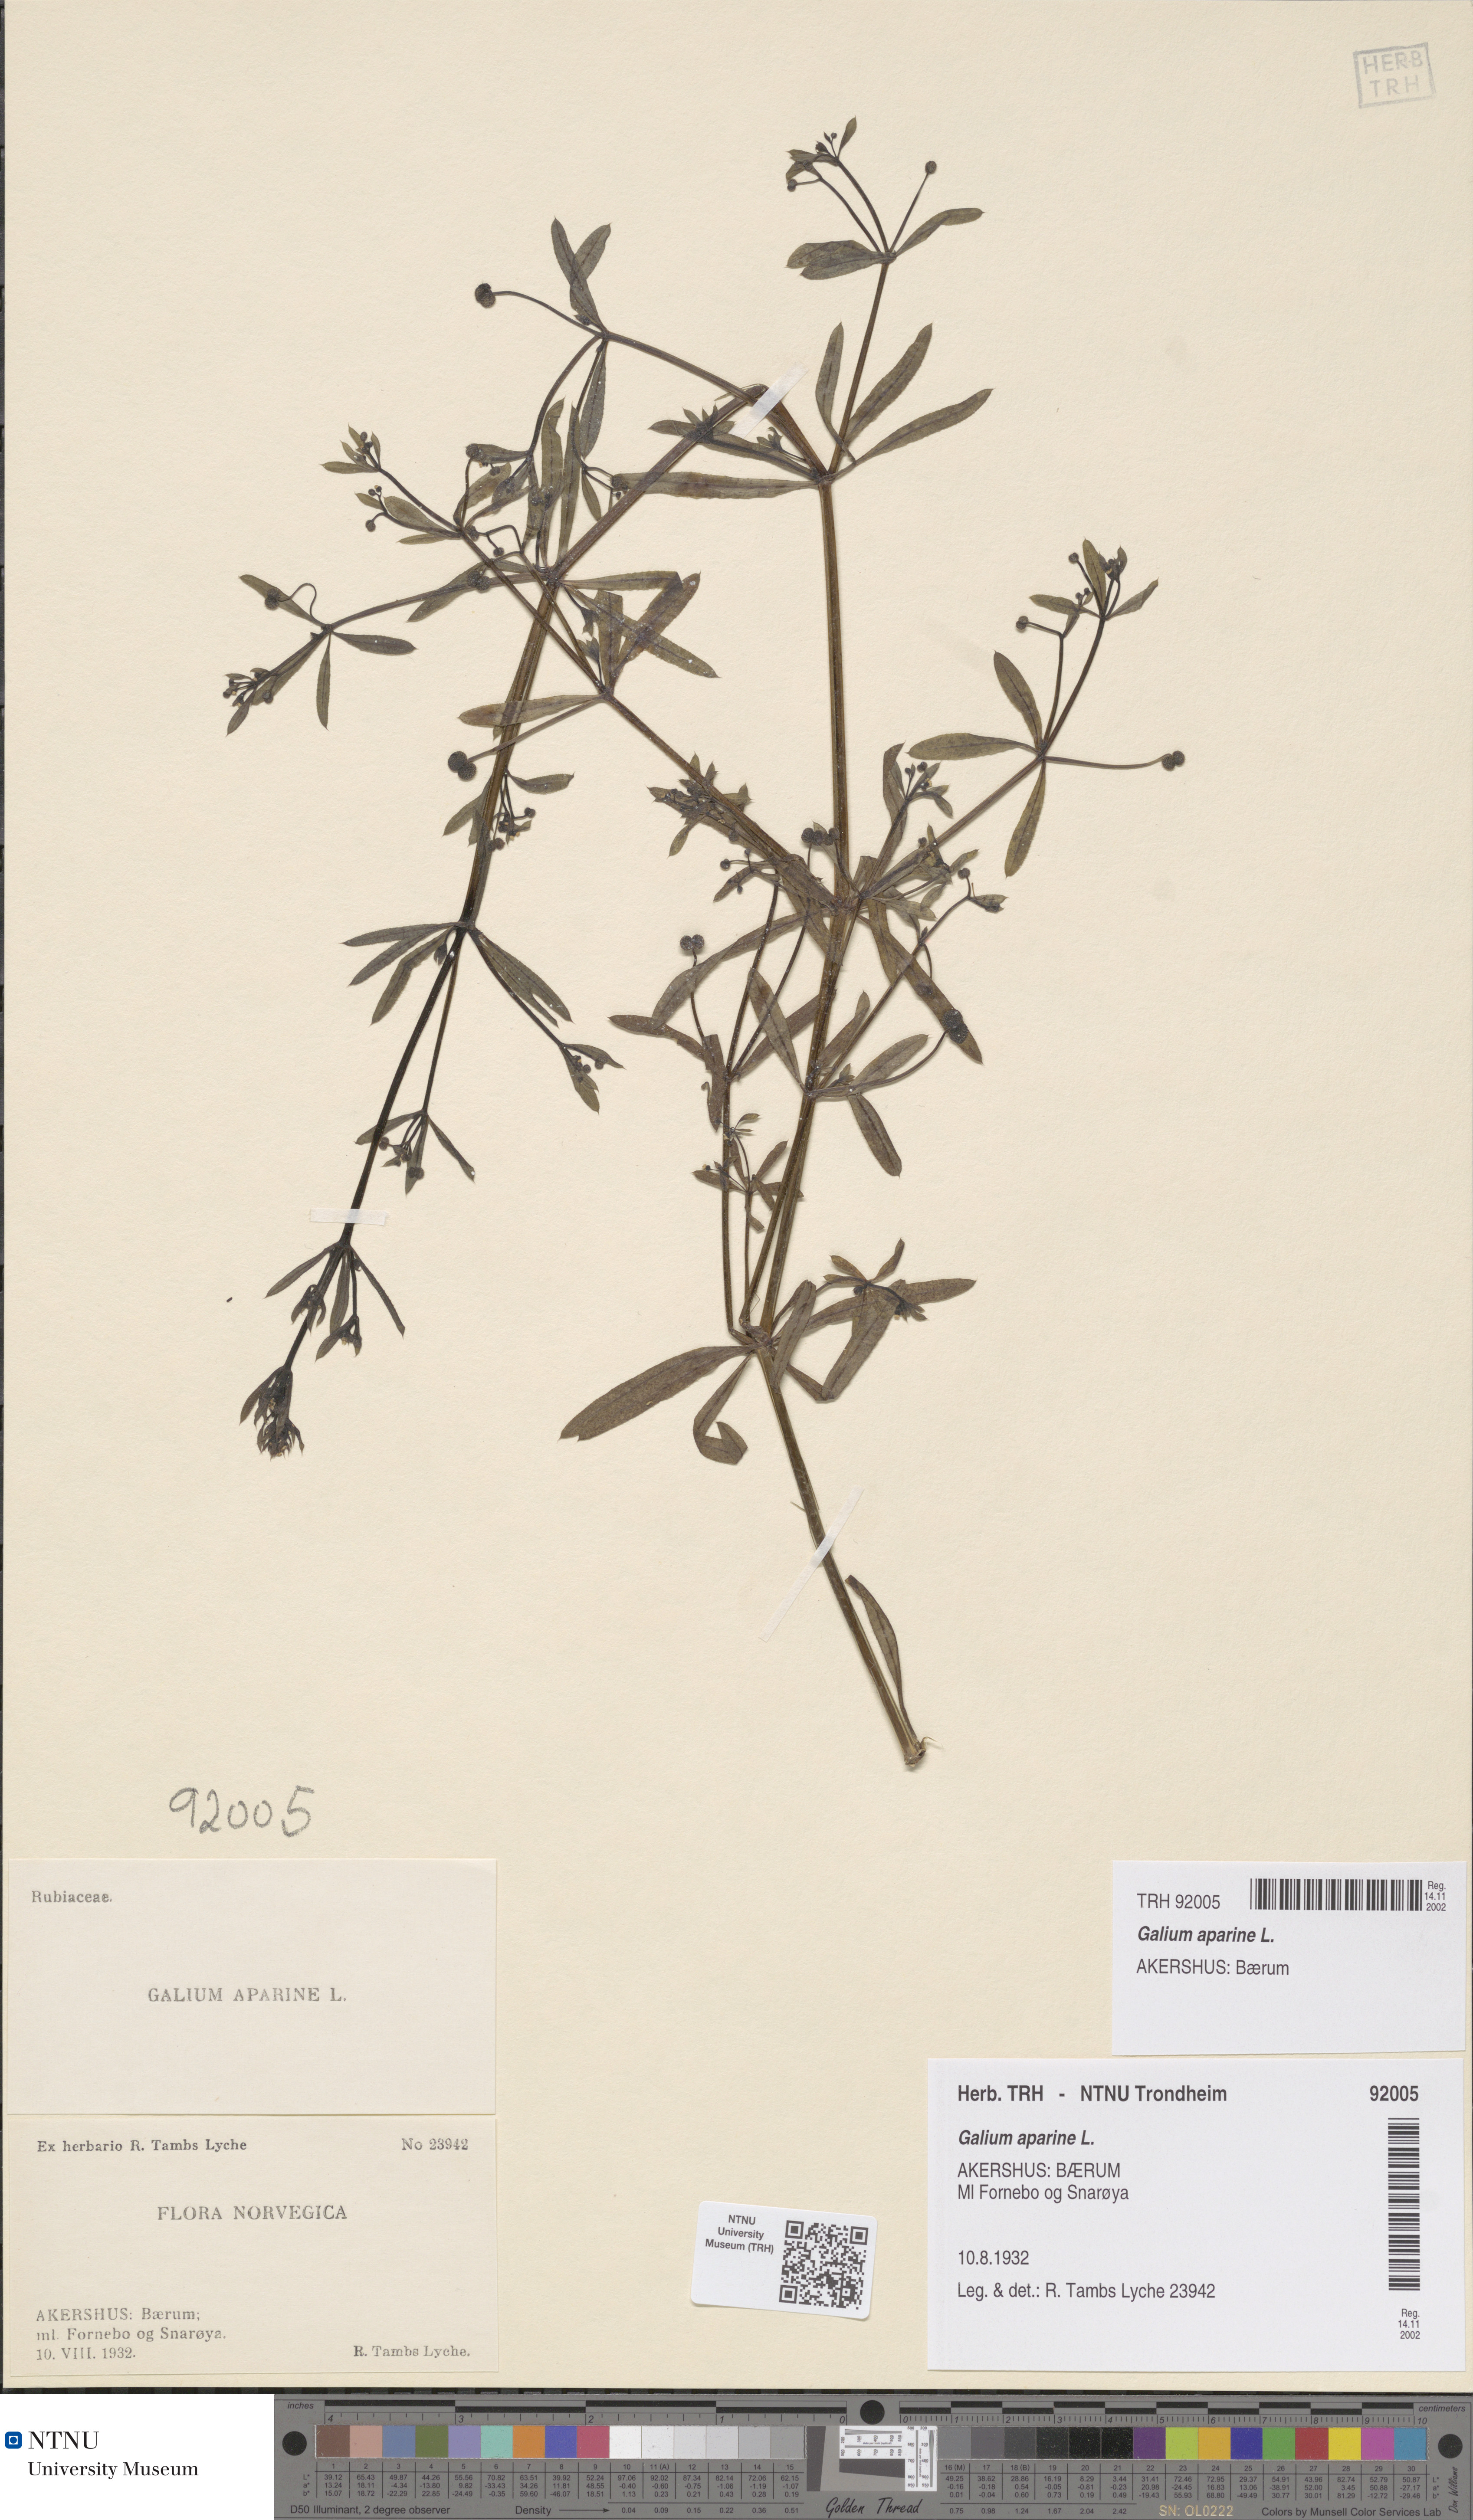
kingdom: Plantae
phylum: Tracheophyta
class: Magnoliopsida
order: Gentianales
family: Rubiaceae
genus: Galium
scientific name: Galium aparine
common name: Cleavers
